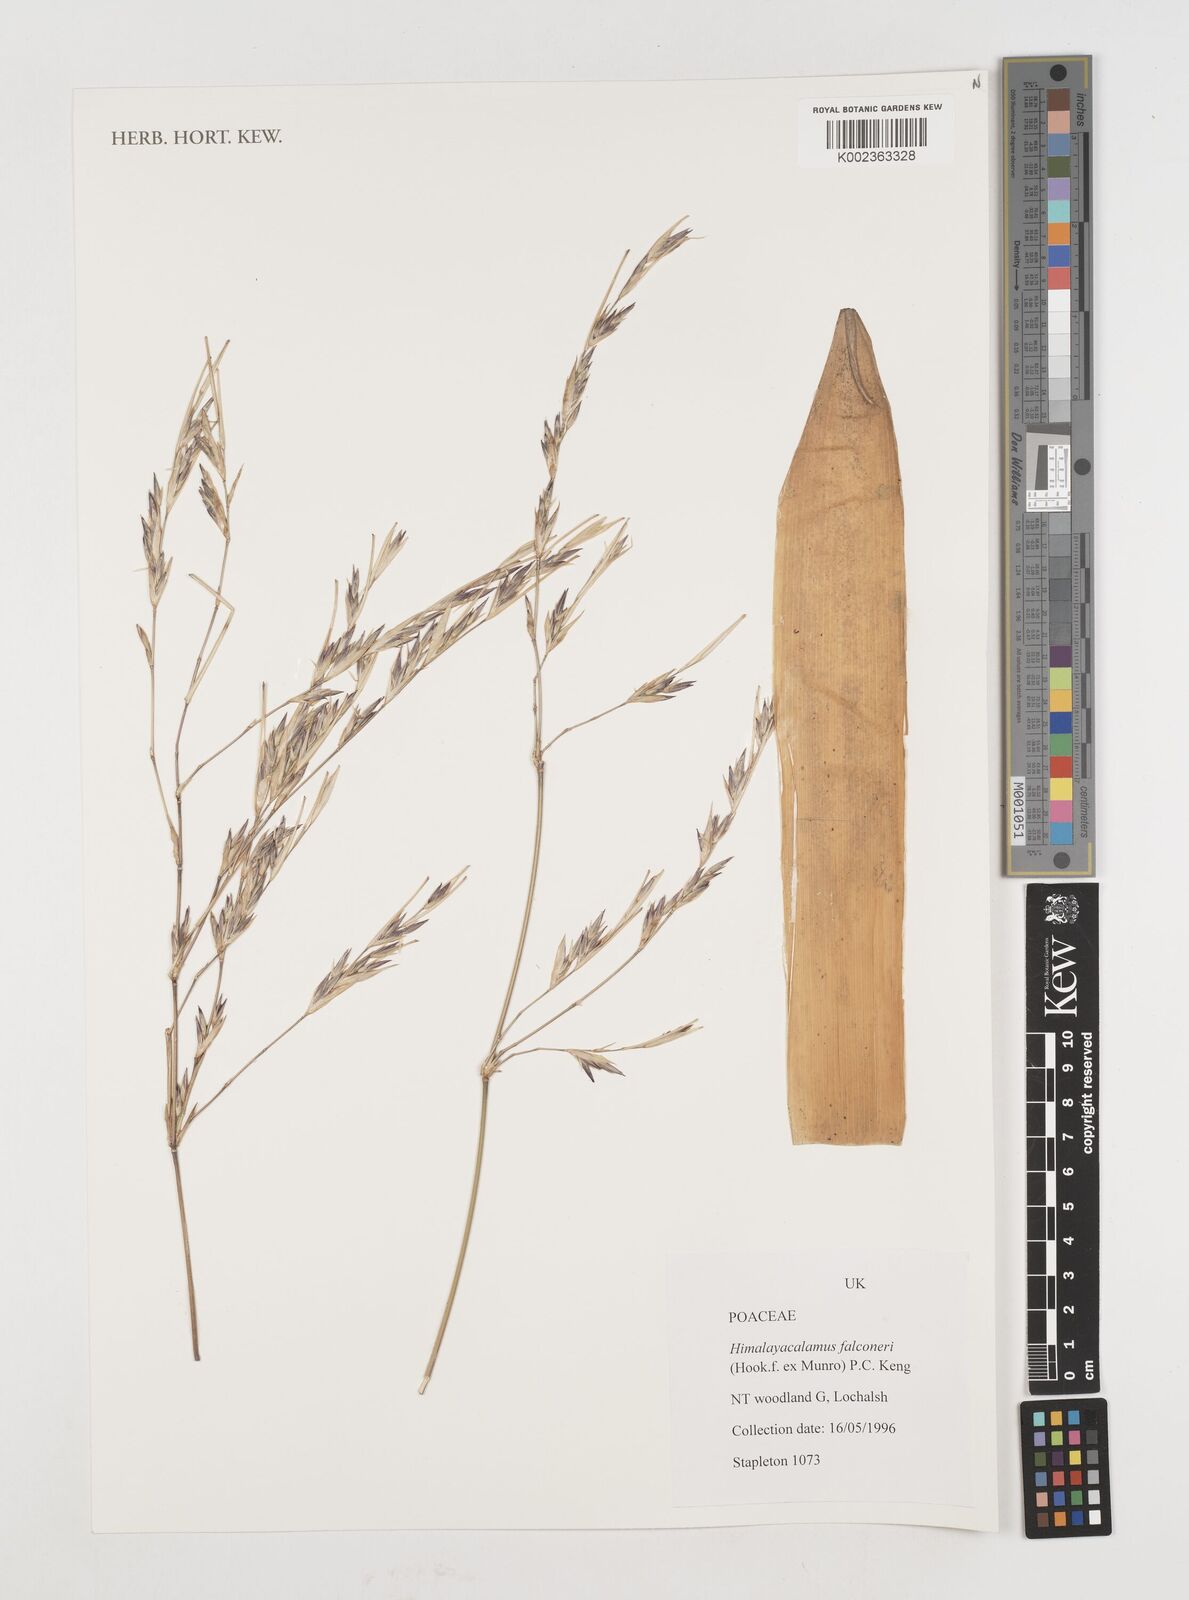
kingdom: Plantae
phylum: Tracheophyta
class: Liliopsida
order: Poales
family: Poaceae
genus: Himalayacalamus
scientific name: Himalayacalamus falconeri
